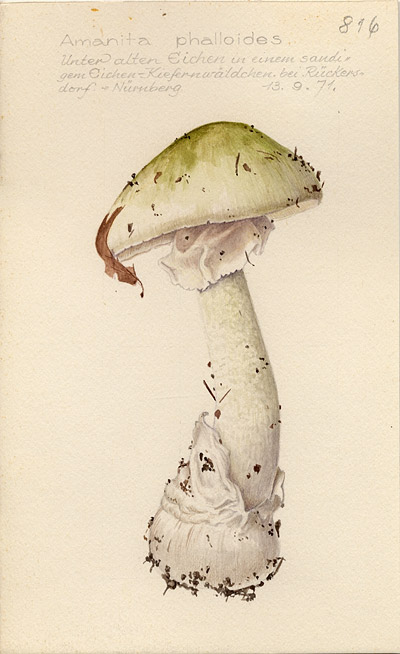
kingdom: Fungi
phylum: Basidiomycota
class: Agaricomycetes
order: Agaricales
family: Amanitaceae
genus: Amanita
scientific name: Amanita phalloides
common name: Death cap
